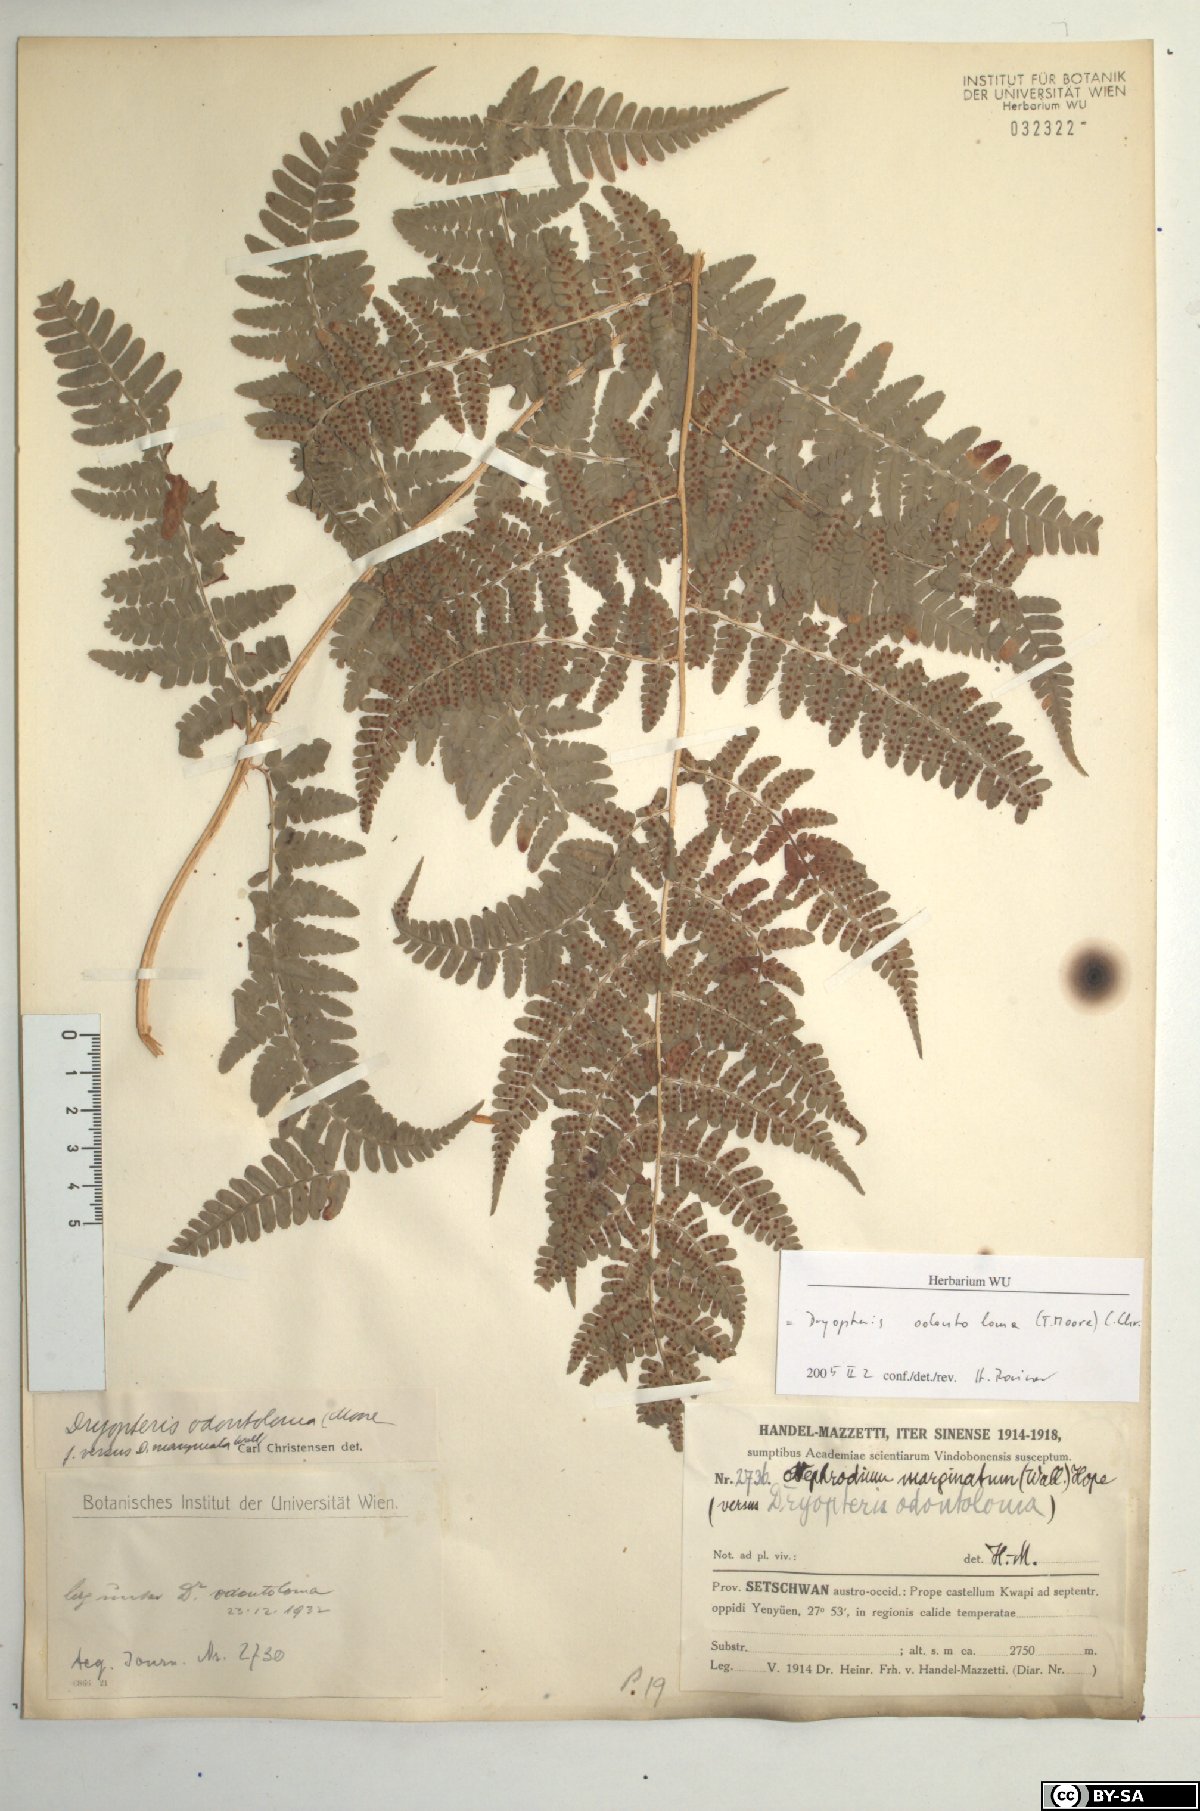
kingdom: Plantae
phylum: Tracheophyta
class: Polypodiopsida
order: Polypodiales
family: Dryopteridaceae
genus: Dryopteris
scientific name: Dryopteris odontoloma
